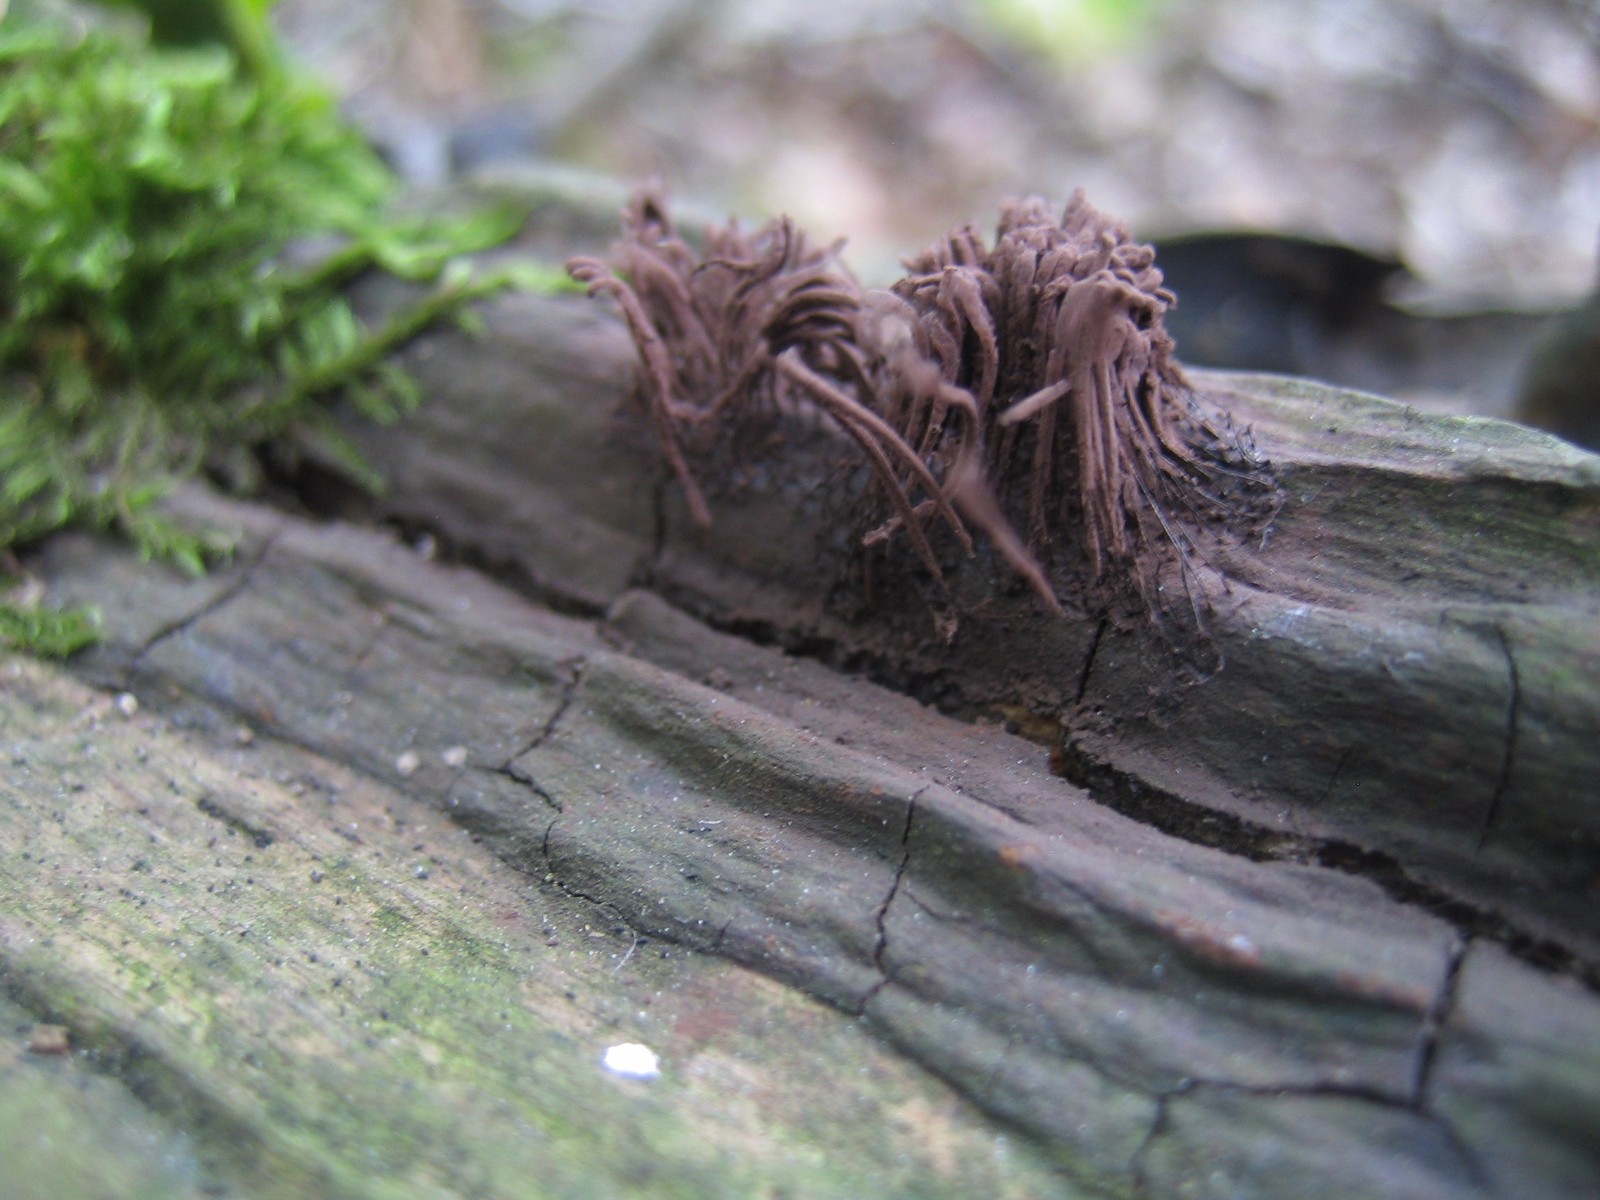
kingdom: Protozoa
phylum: Mycetozoa
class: Myxomycetes
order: Stemonitidales
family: Stemonitidaceae
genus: Stemonitis
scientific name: Stemonitis axifera
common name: rødbrun støvkølle
